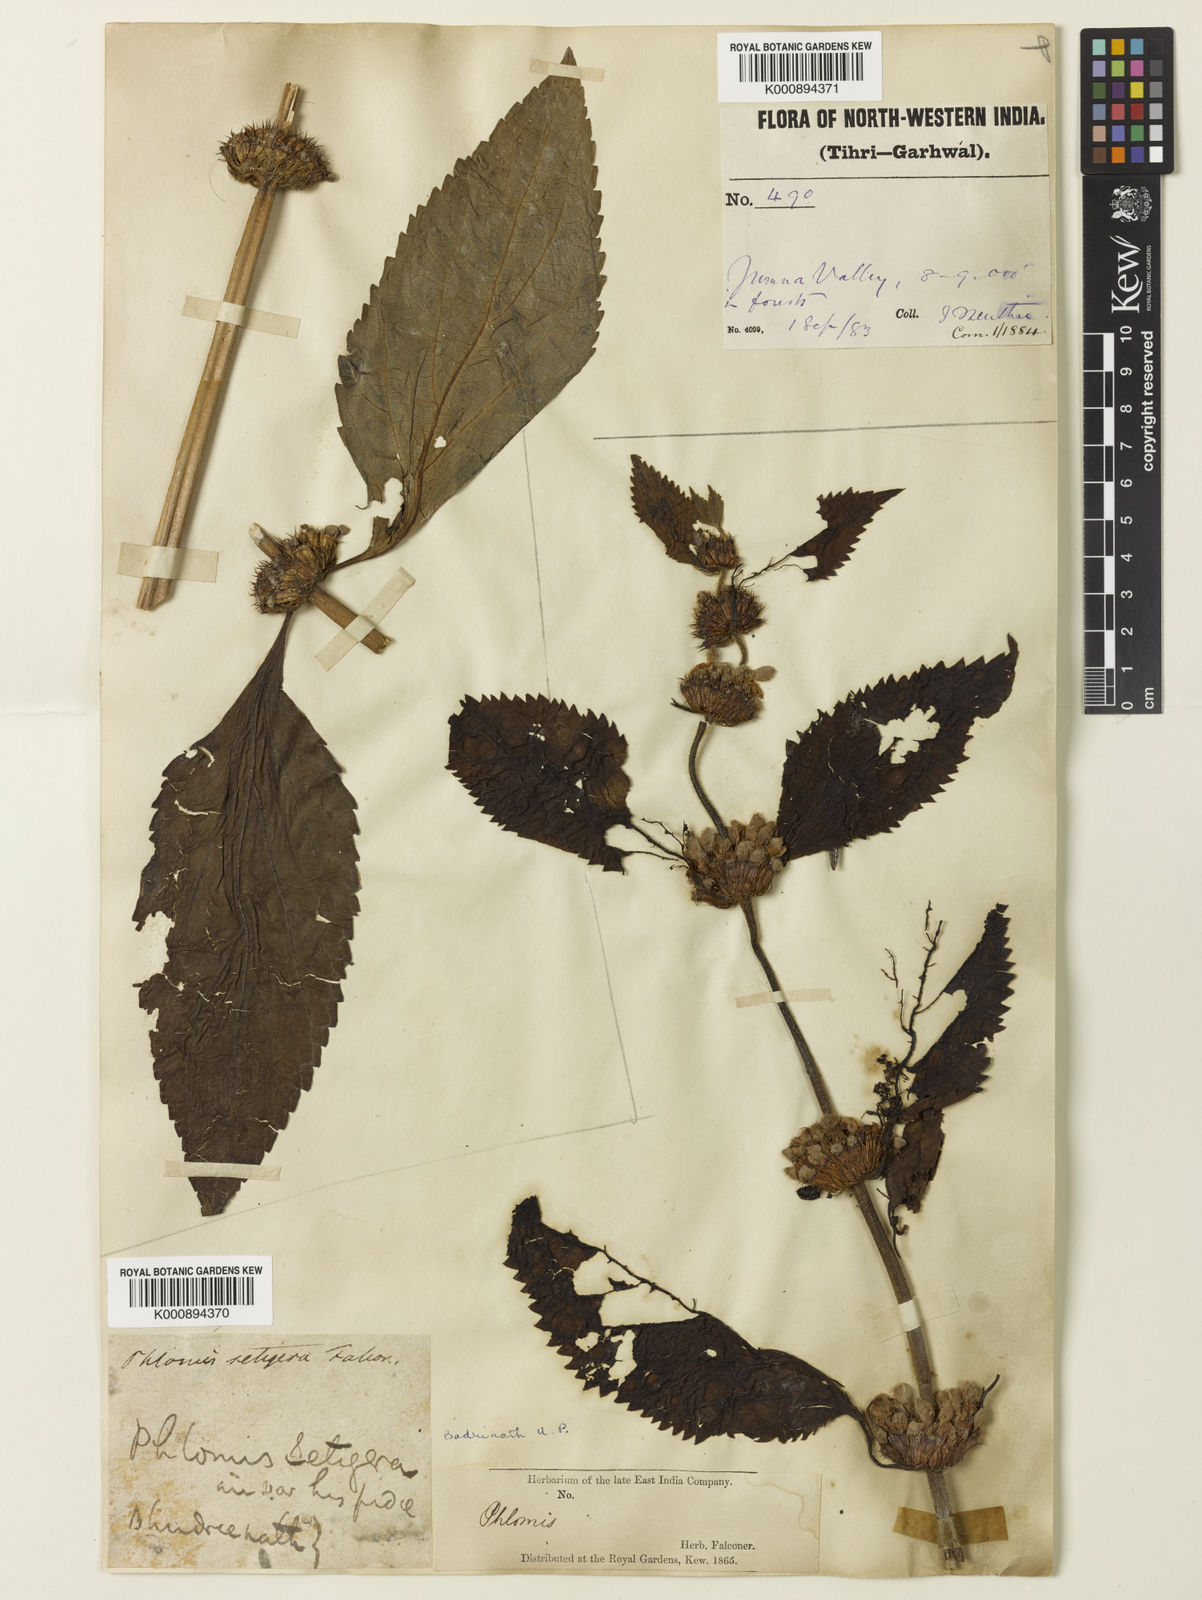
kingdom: Plantae
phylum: Tracheophyta
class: Magnoliopsida
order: Lamiales
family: Lamiaceae
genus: Phlomoides
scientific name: Phlomoides macrophylla
